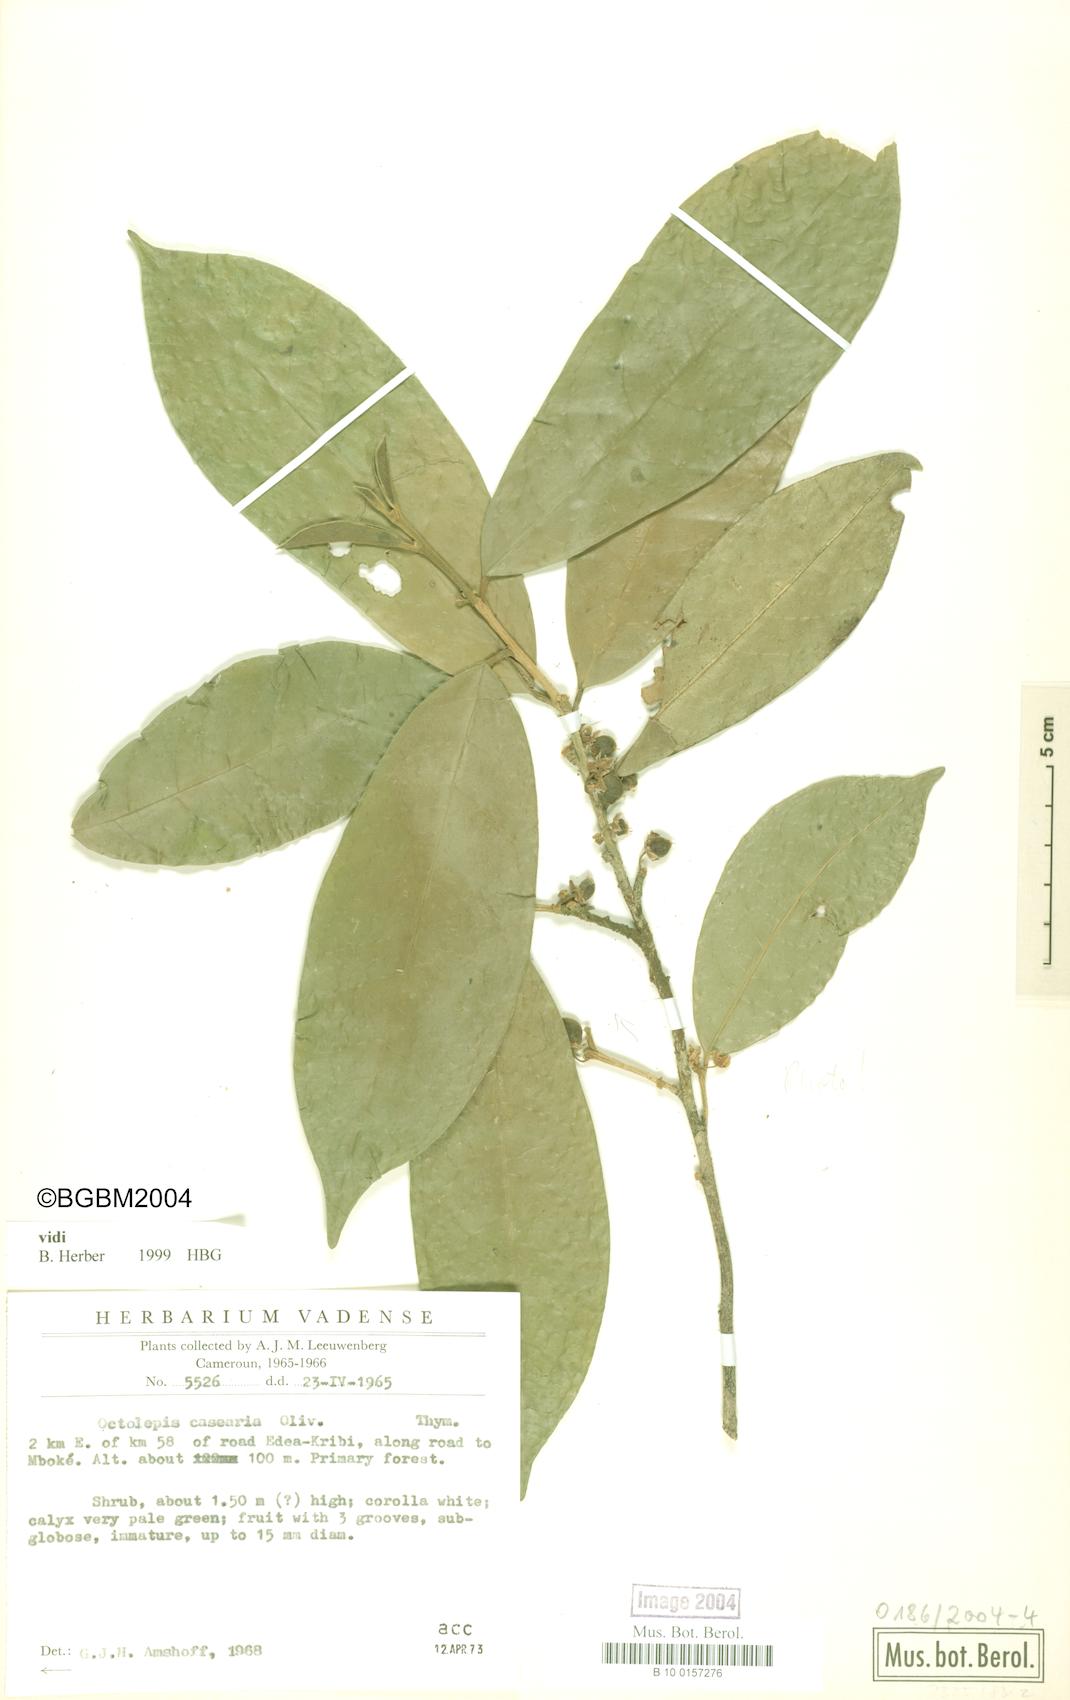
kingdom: Plantae
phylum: Tracheophyta
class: Magnoliopsida
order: Malvales
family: Thymelaeaceae
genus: Octolepis
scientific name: Octolepis casearia
